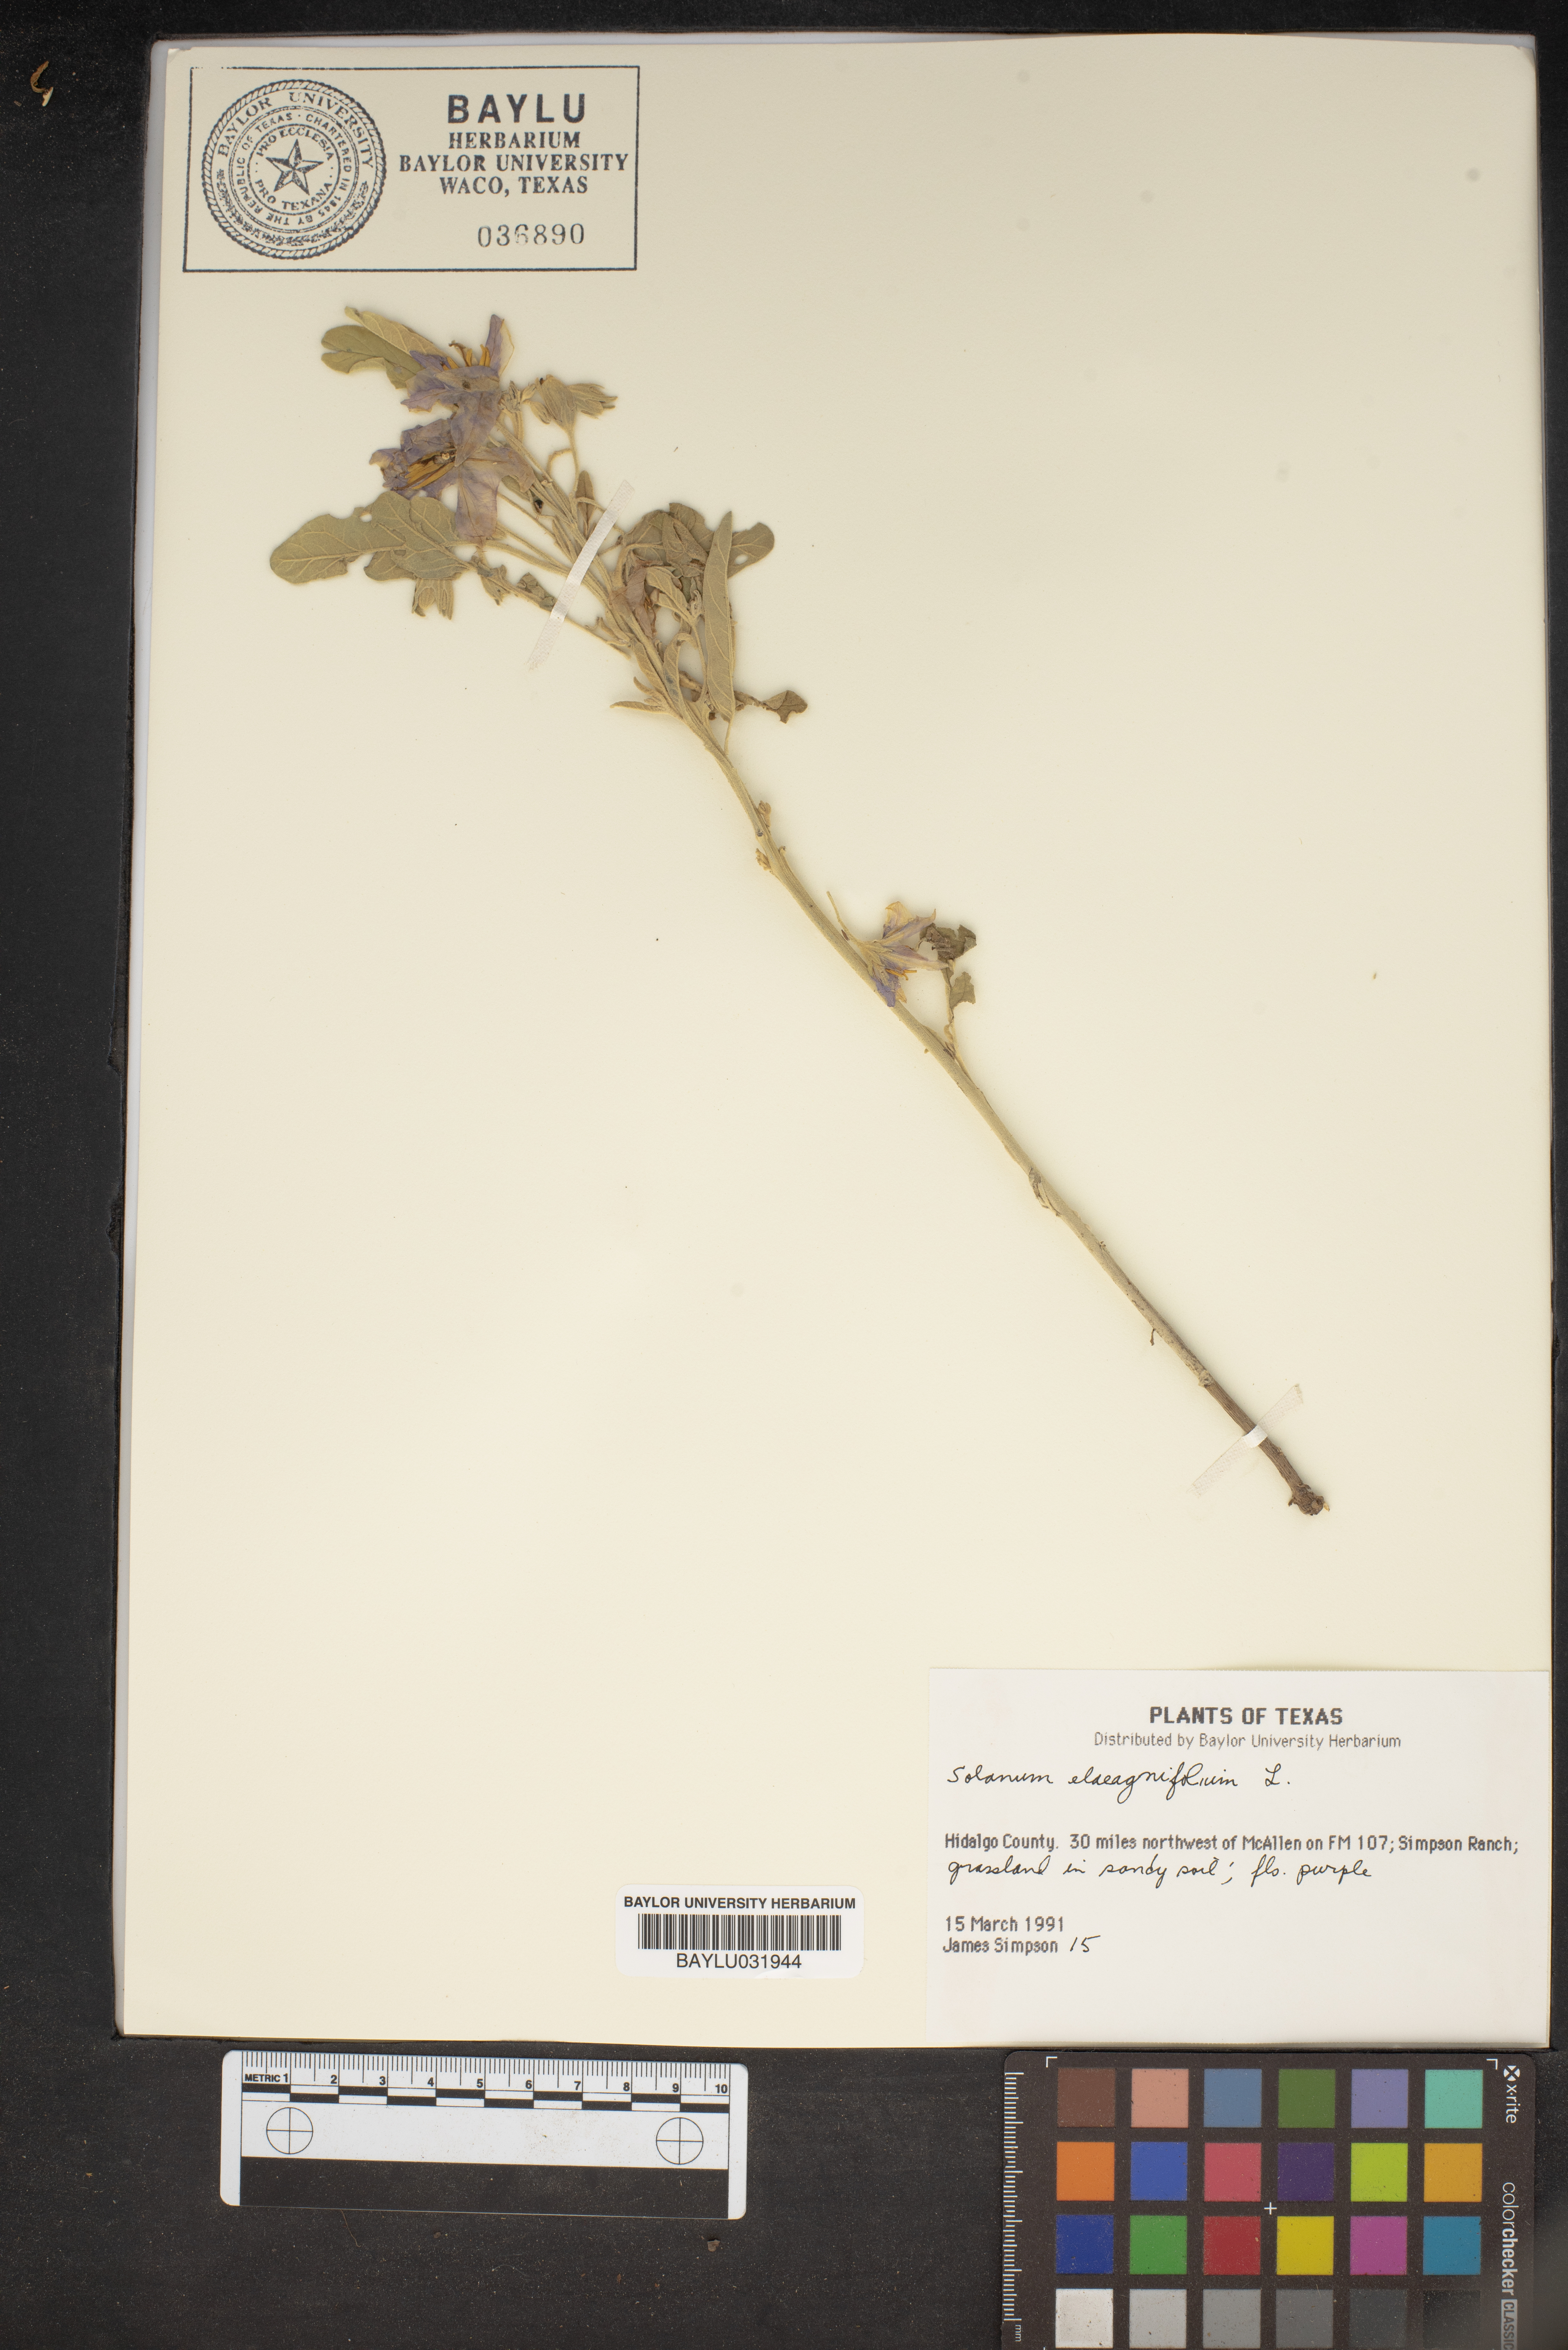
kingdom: Plantae
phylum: Tracheophyta
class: Magnoliopsida
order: Solanales
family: Solanaceae
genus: Solanum
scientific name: Solanum elaeagnifolium
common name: Silverleaf nightshade
